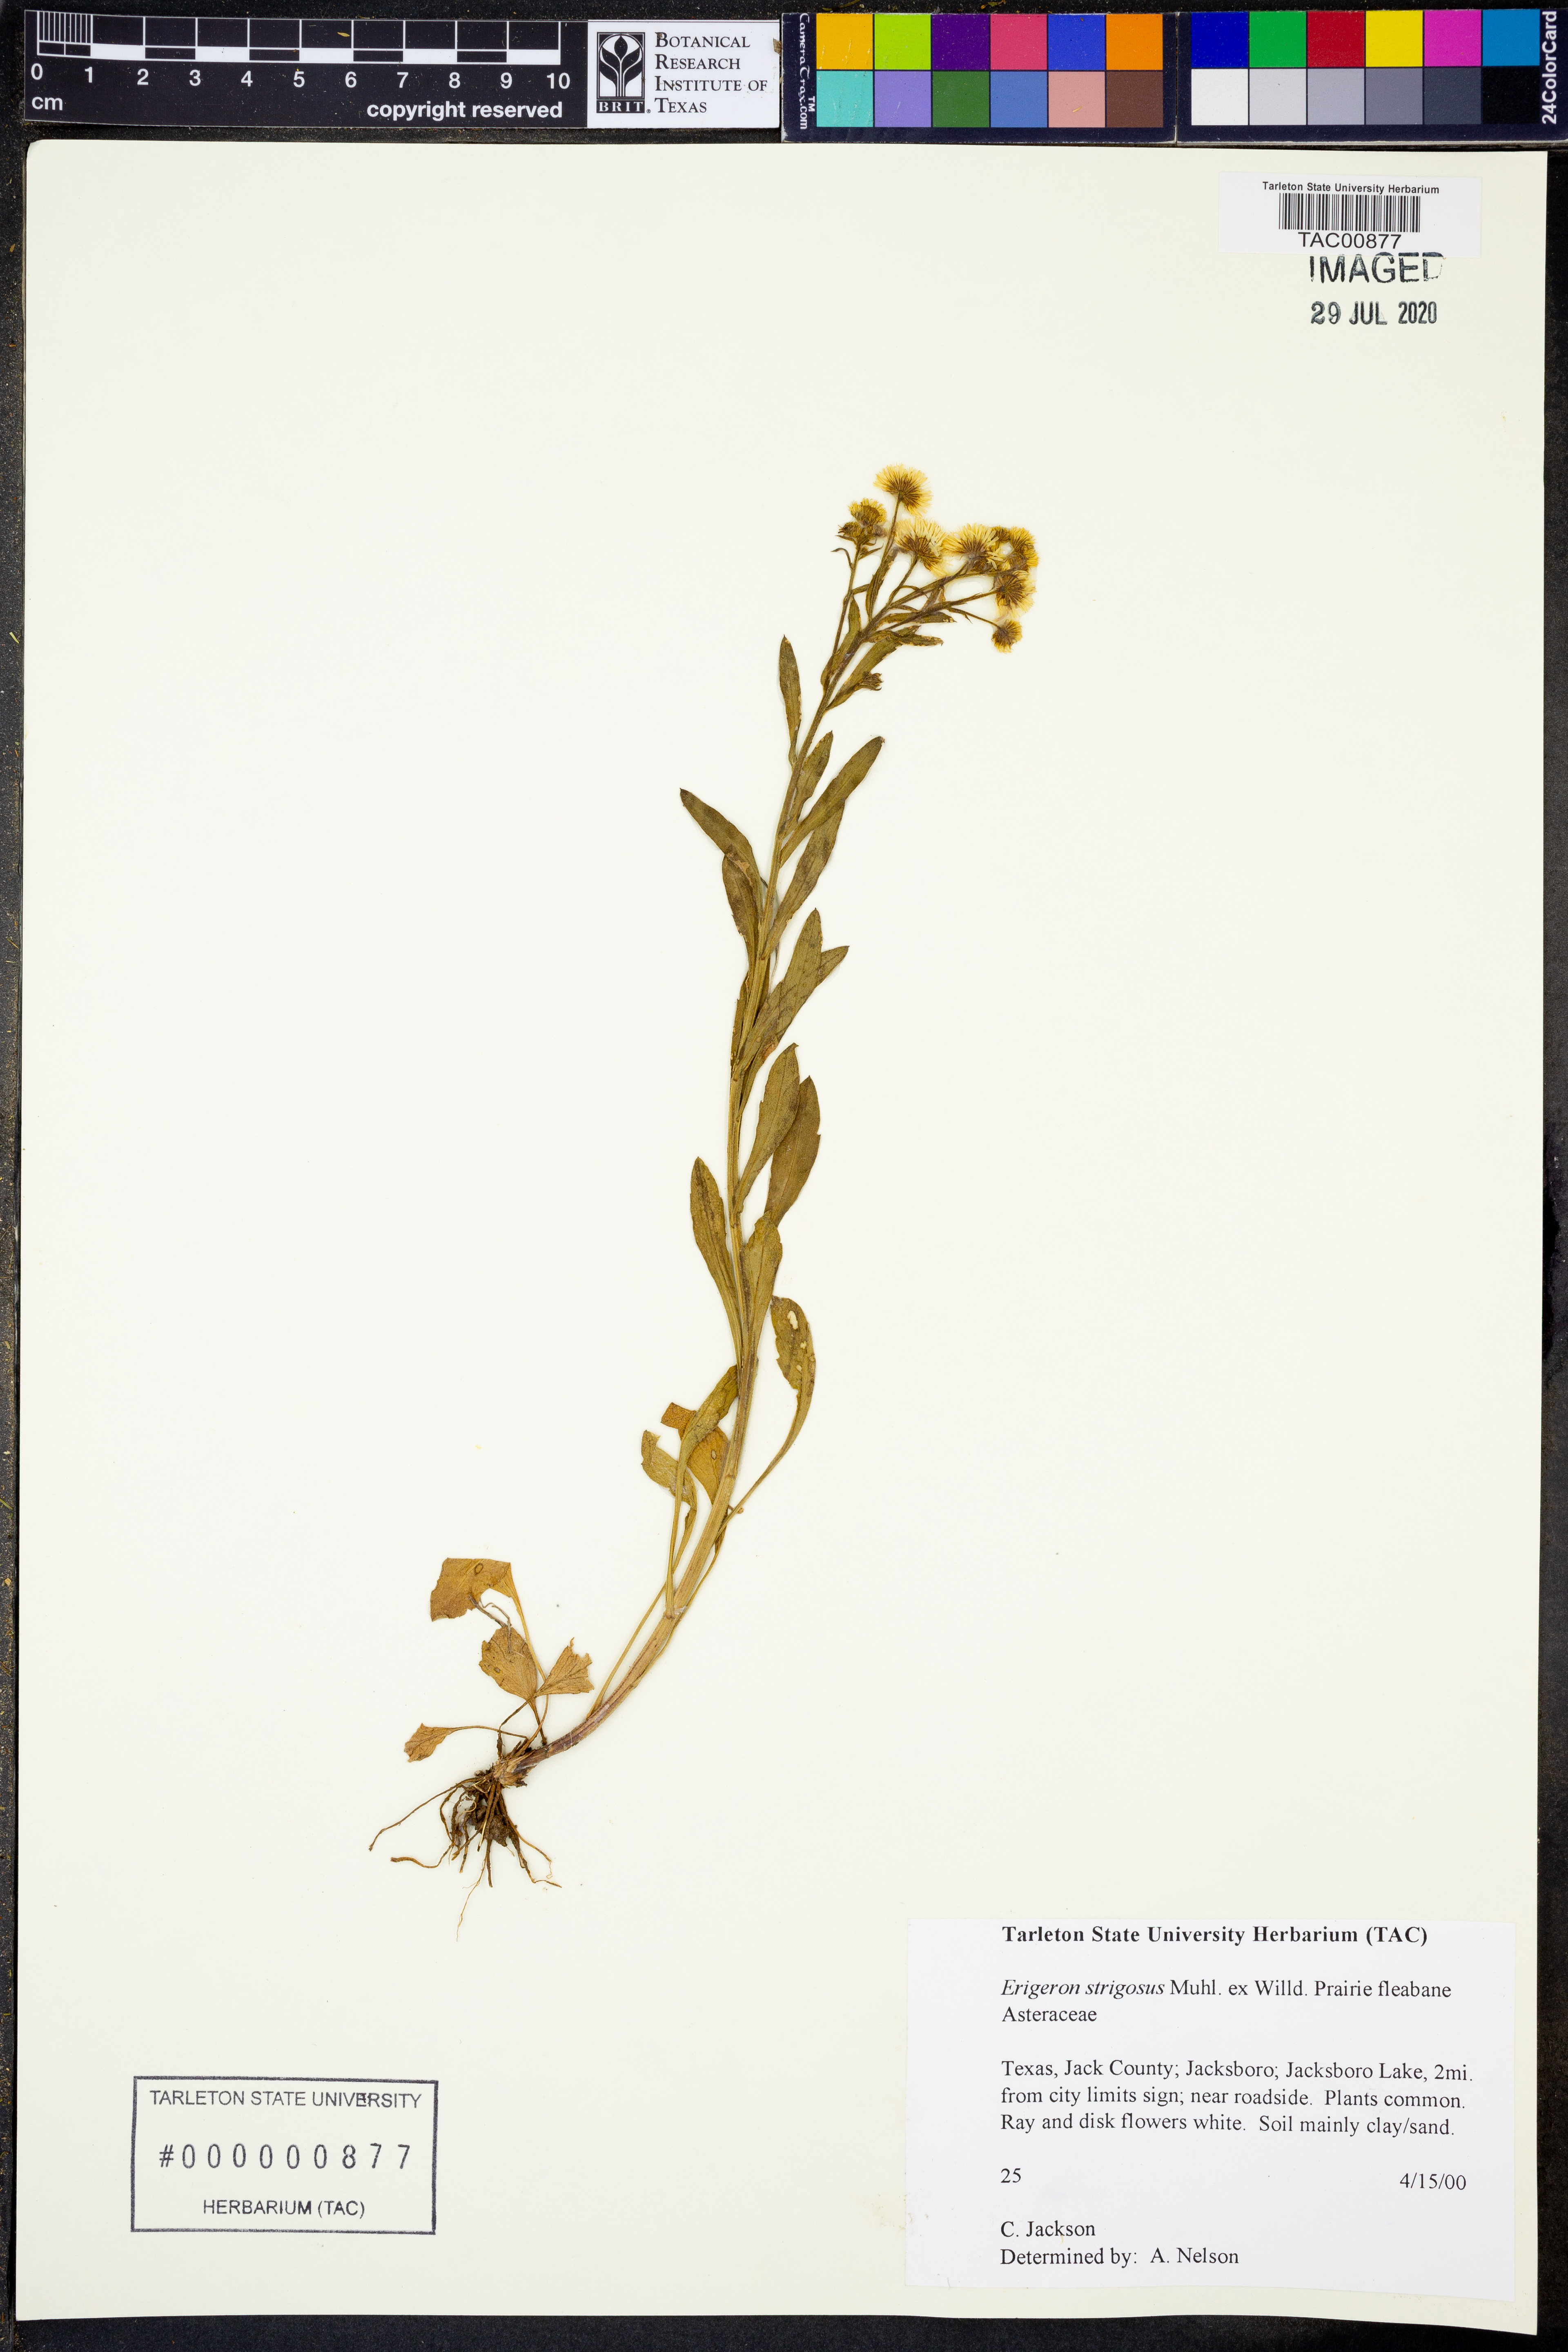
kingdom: Plantae
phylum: Tracheophyta
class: Magnoliopsida
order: Asterales
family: Asteraceae
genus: Erigeron
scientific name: Erigeron strigosus
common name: Common eastern fleabane
